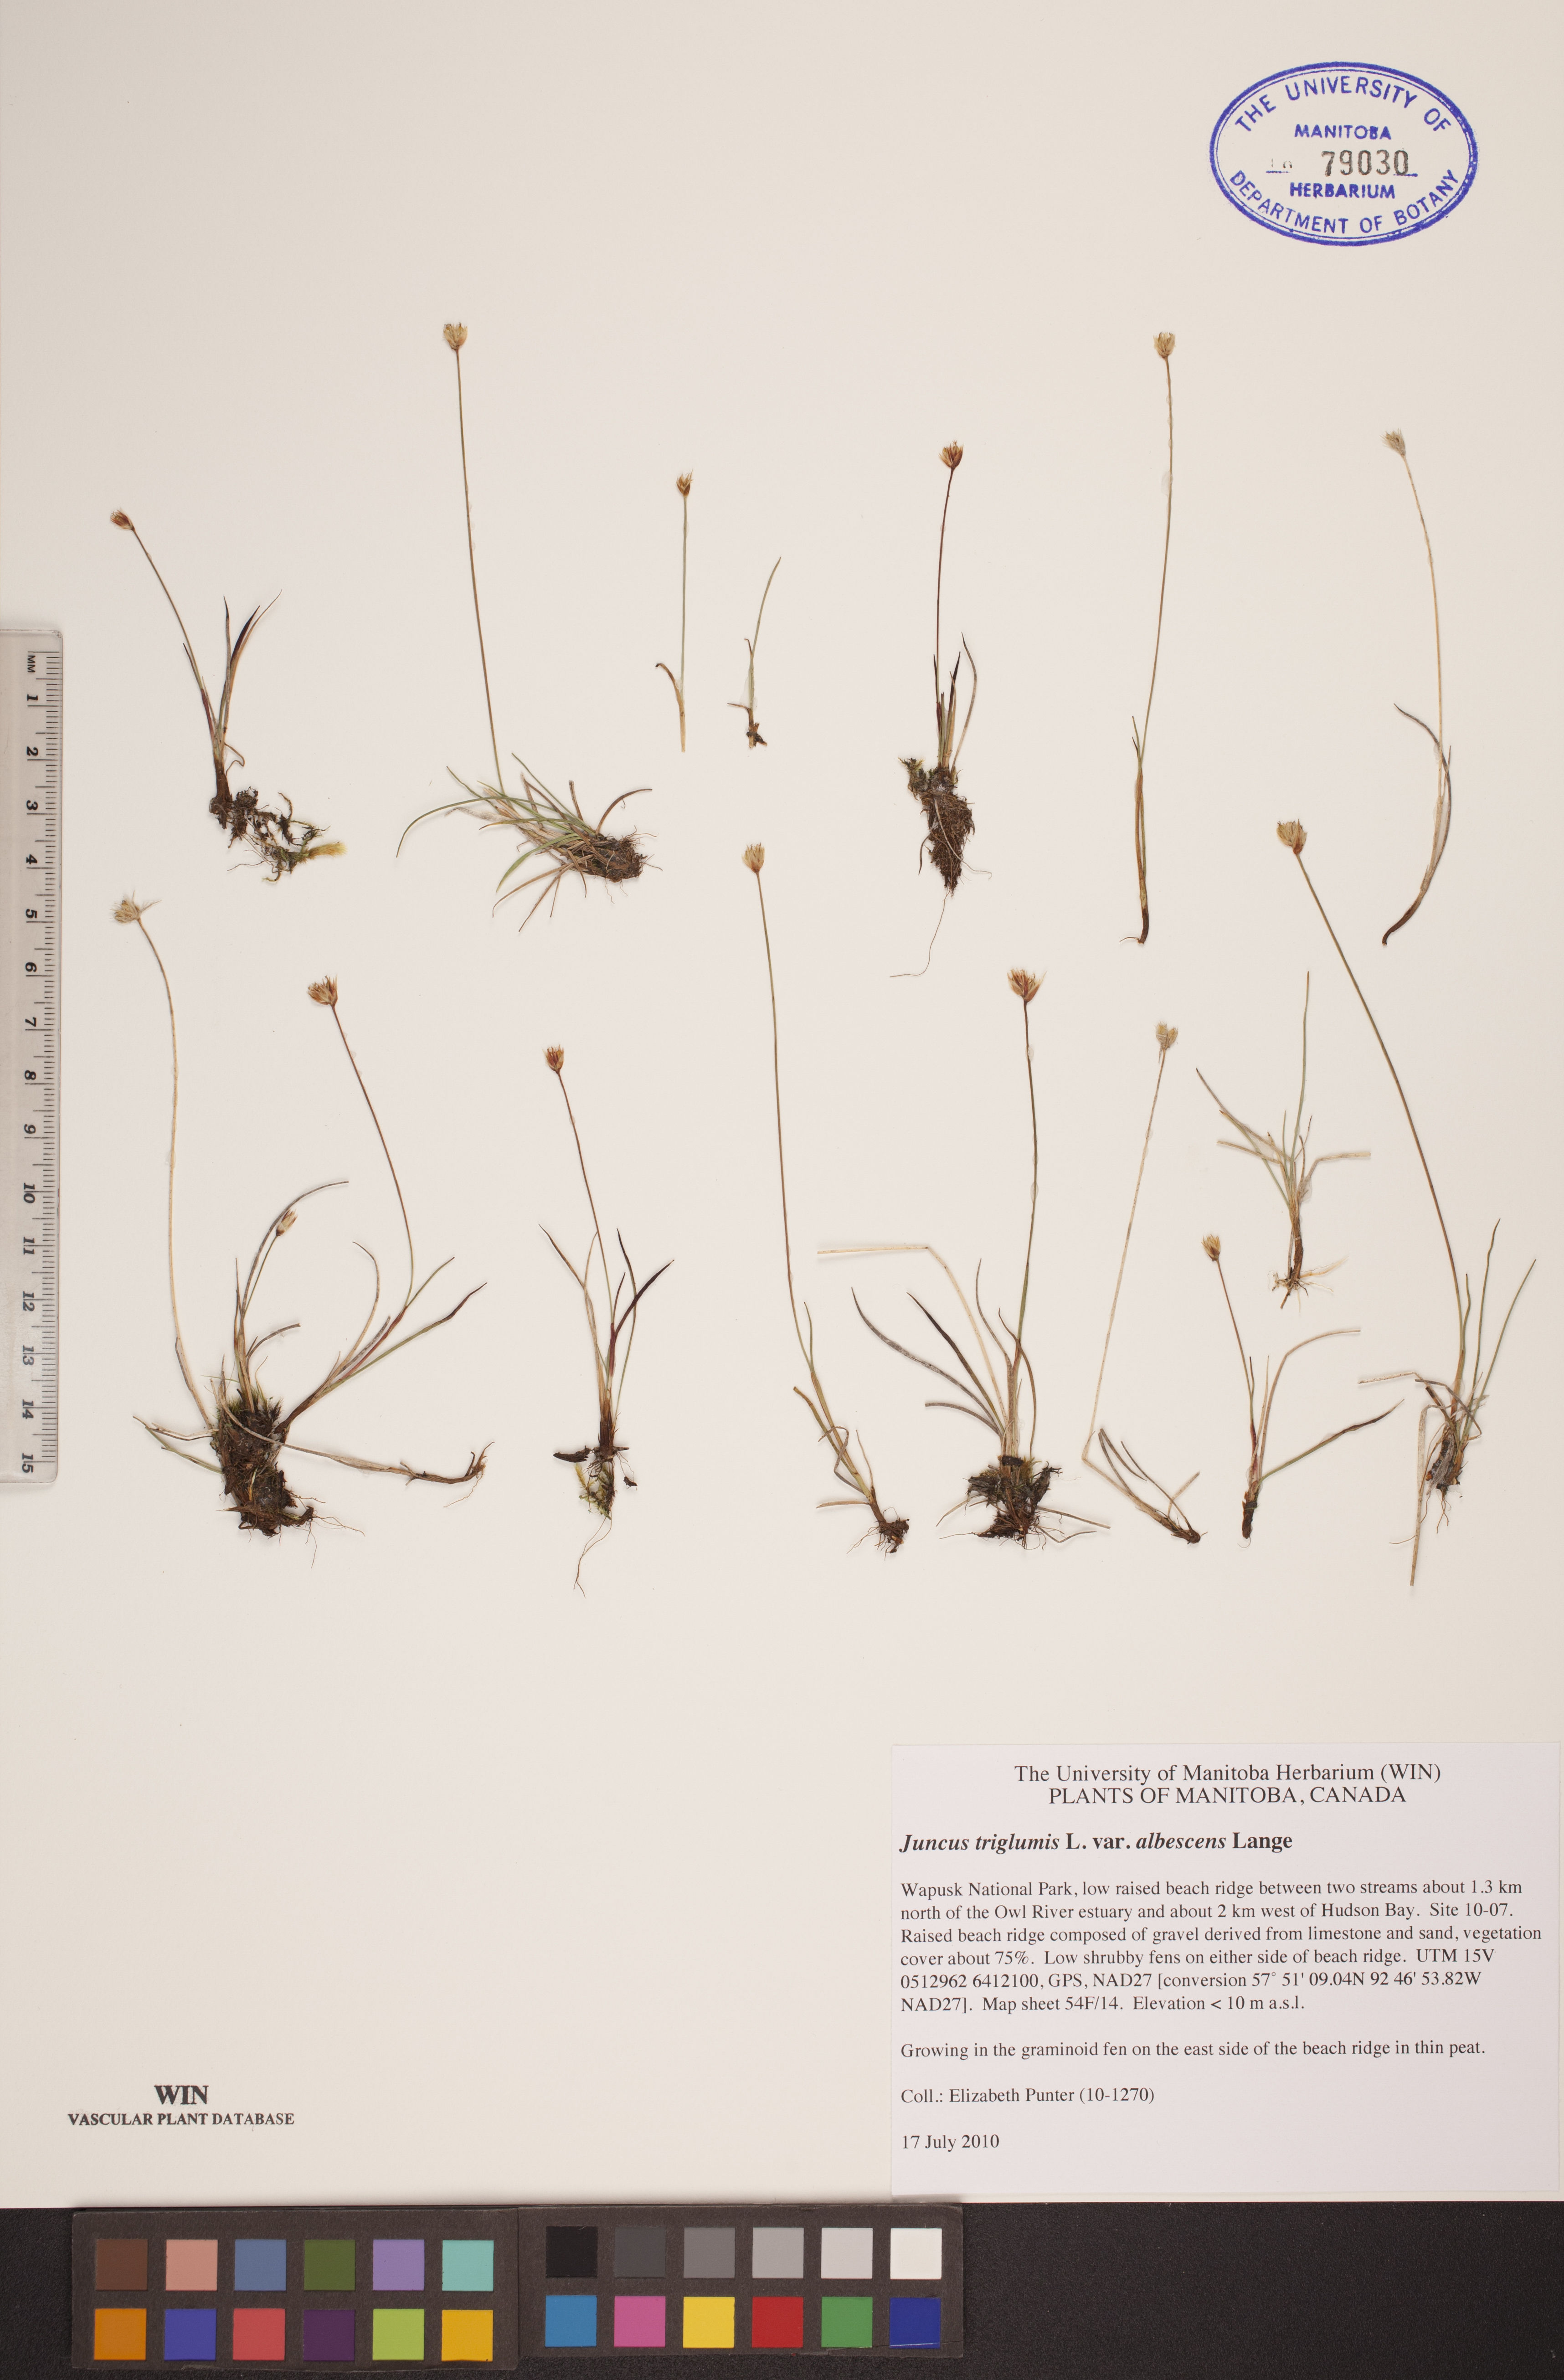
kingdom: Plantae
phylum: Tracheophyta
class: Liliopsida
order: Poales
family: Juncaceae
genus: Juncus
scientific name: Juncus albescens
